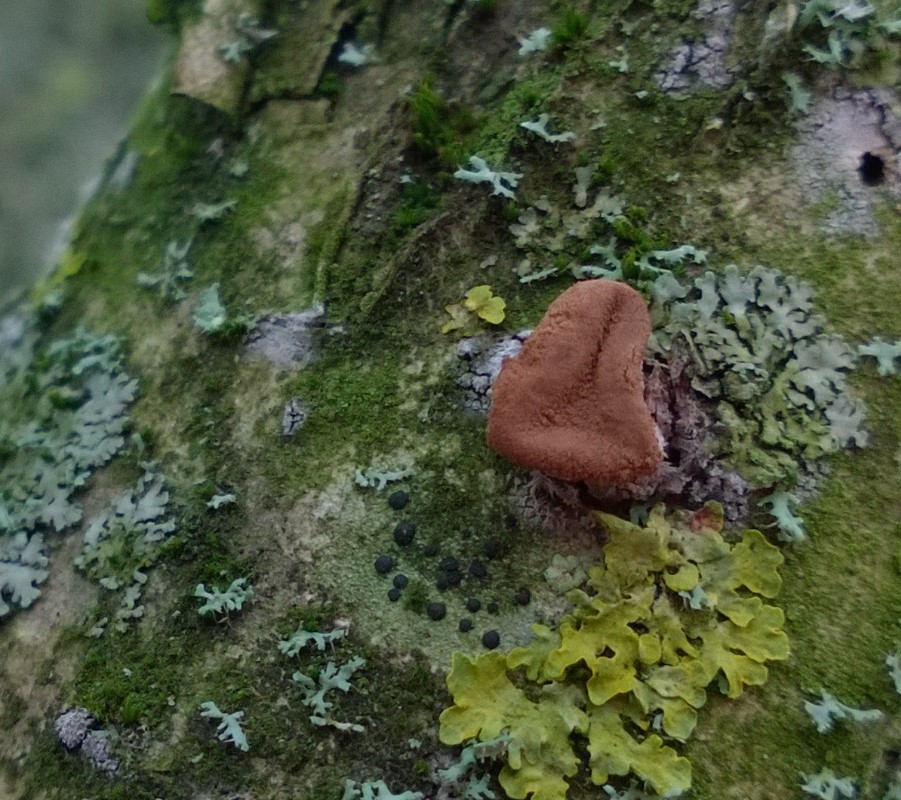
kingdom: Fungi
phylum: Ascomycota
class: Leotiomycetes
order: Helotiales
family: Cenangiaceae
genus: Encoelia
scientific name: Encoelia furfuracea
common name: hassel-læderskive
